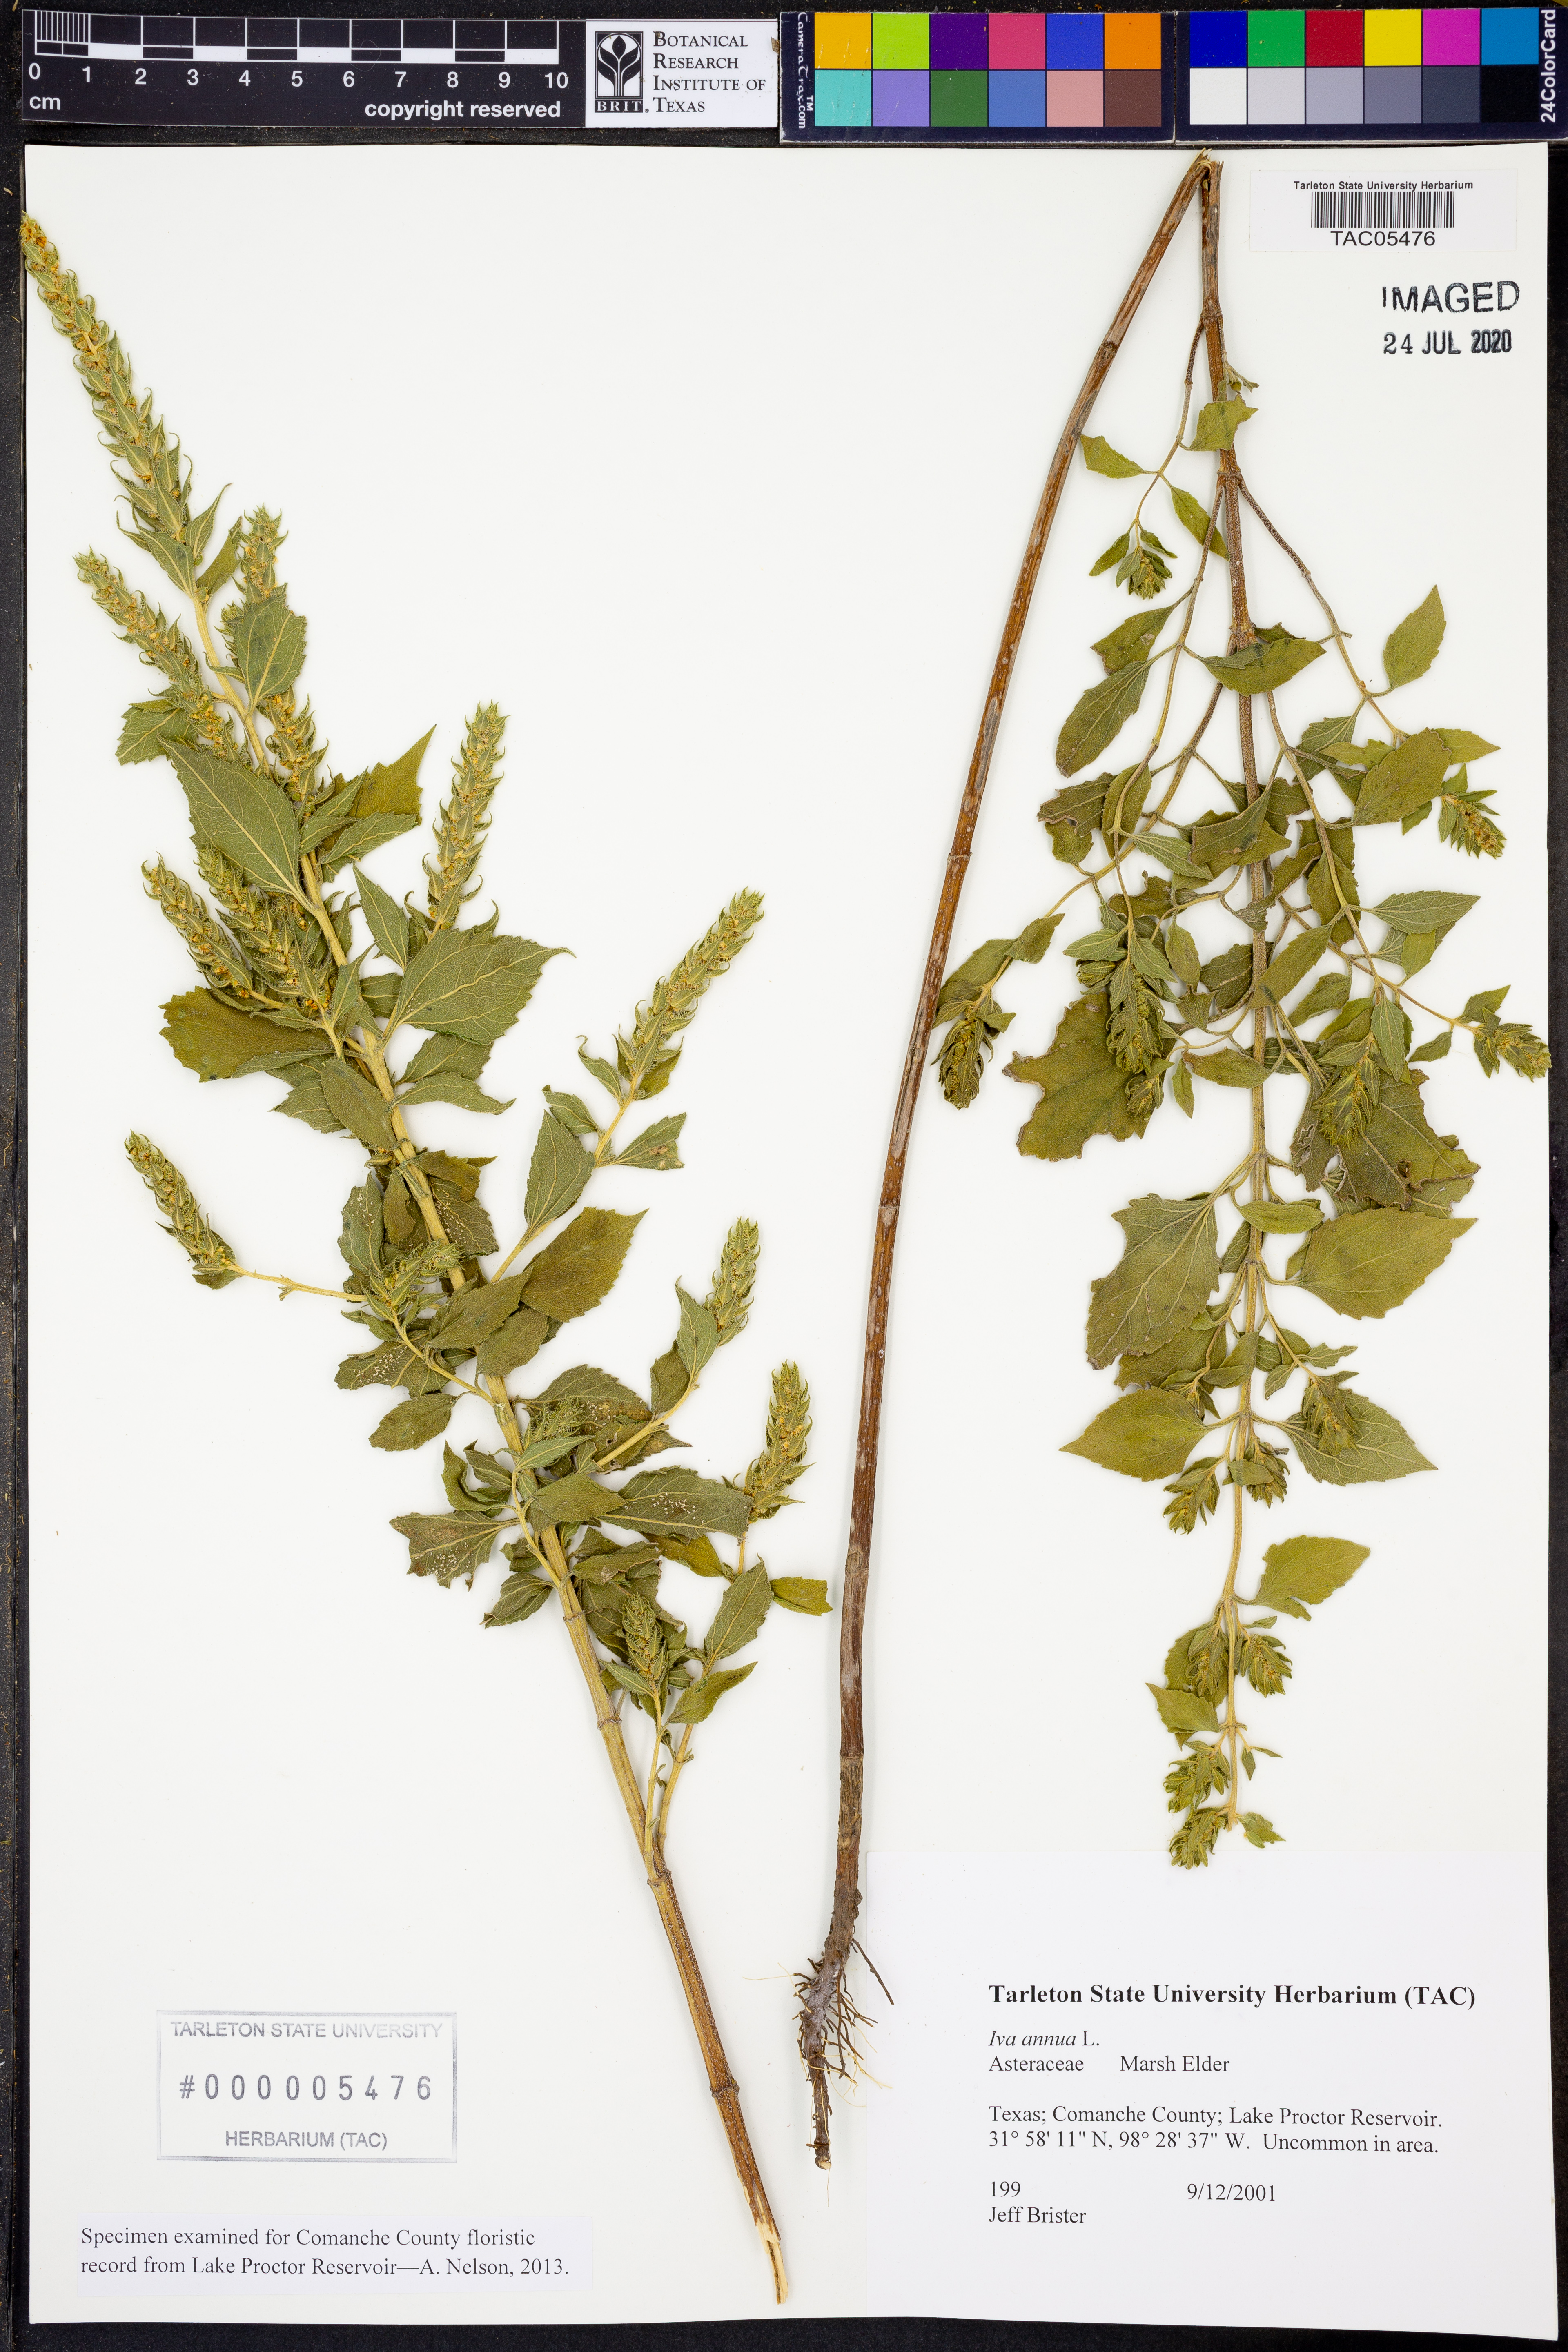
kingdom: Plantae
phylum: Tracheophyta
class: Magnoliopsida
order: Asterales
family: Asteraceae
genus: Iva
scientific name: Iva annua
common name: Marsh-elder
